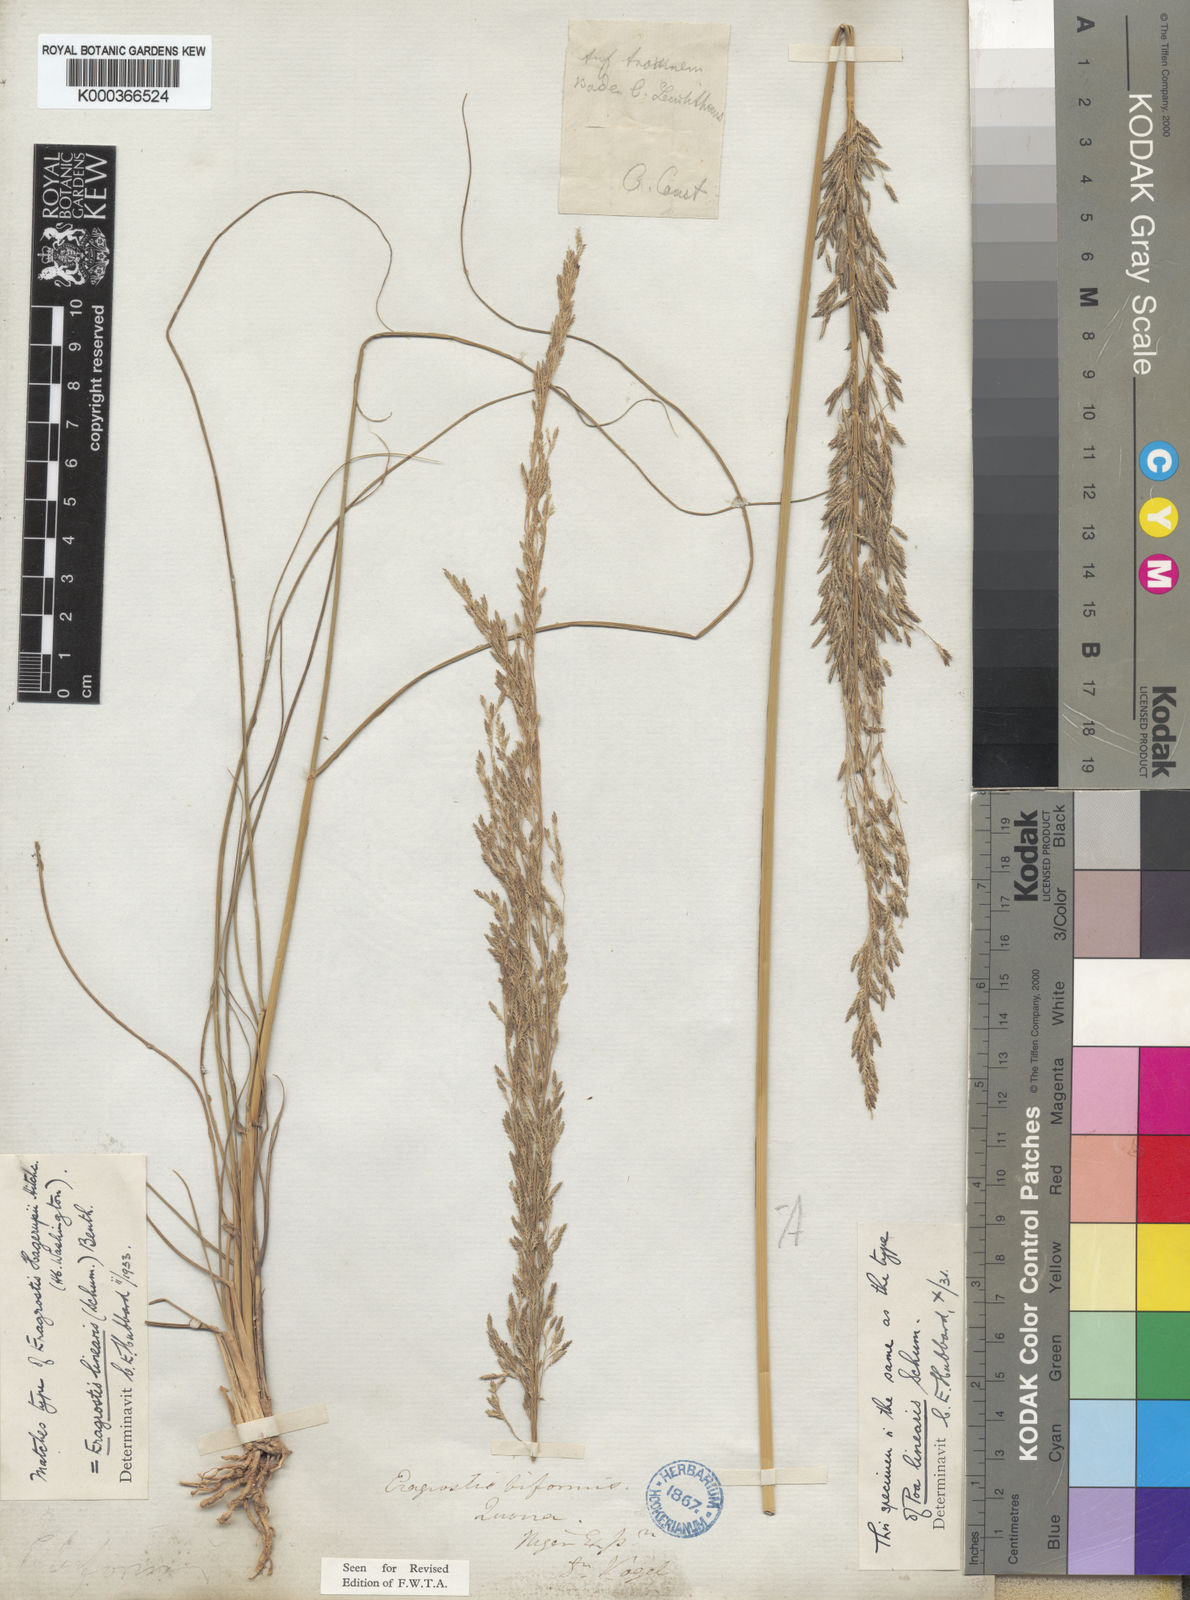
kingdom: Plantae
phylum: Tracheophyta
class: Liliopsida
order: Poales
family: Poaceae
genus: Eragrostis
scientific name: Eragrostis prolifera
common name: Dominican lovegrass
